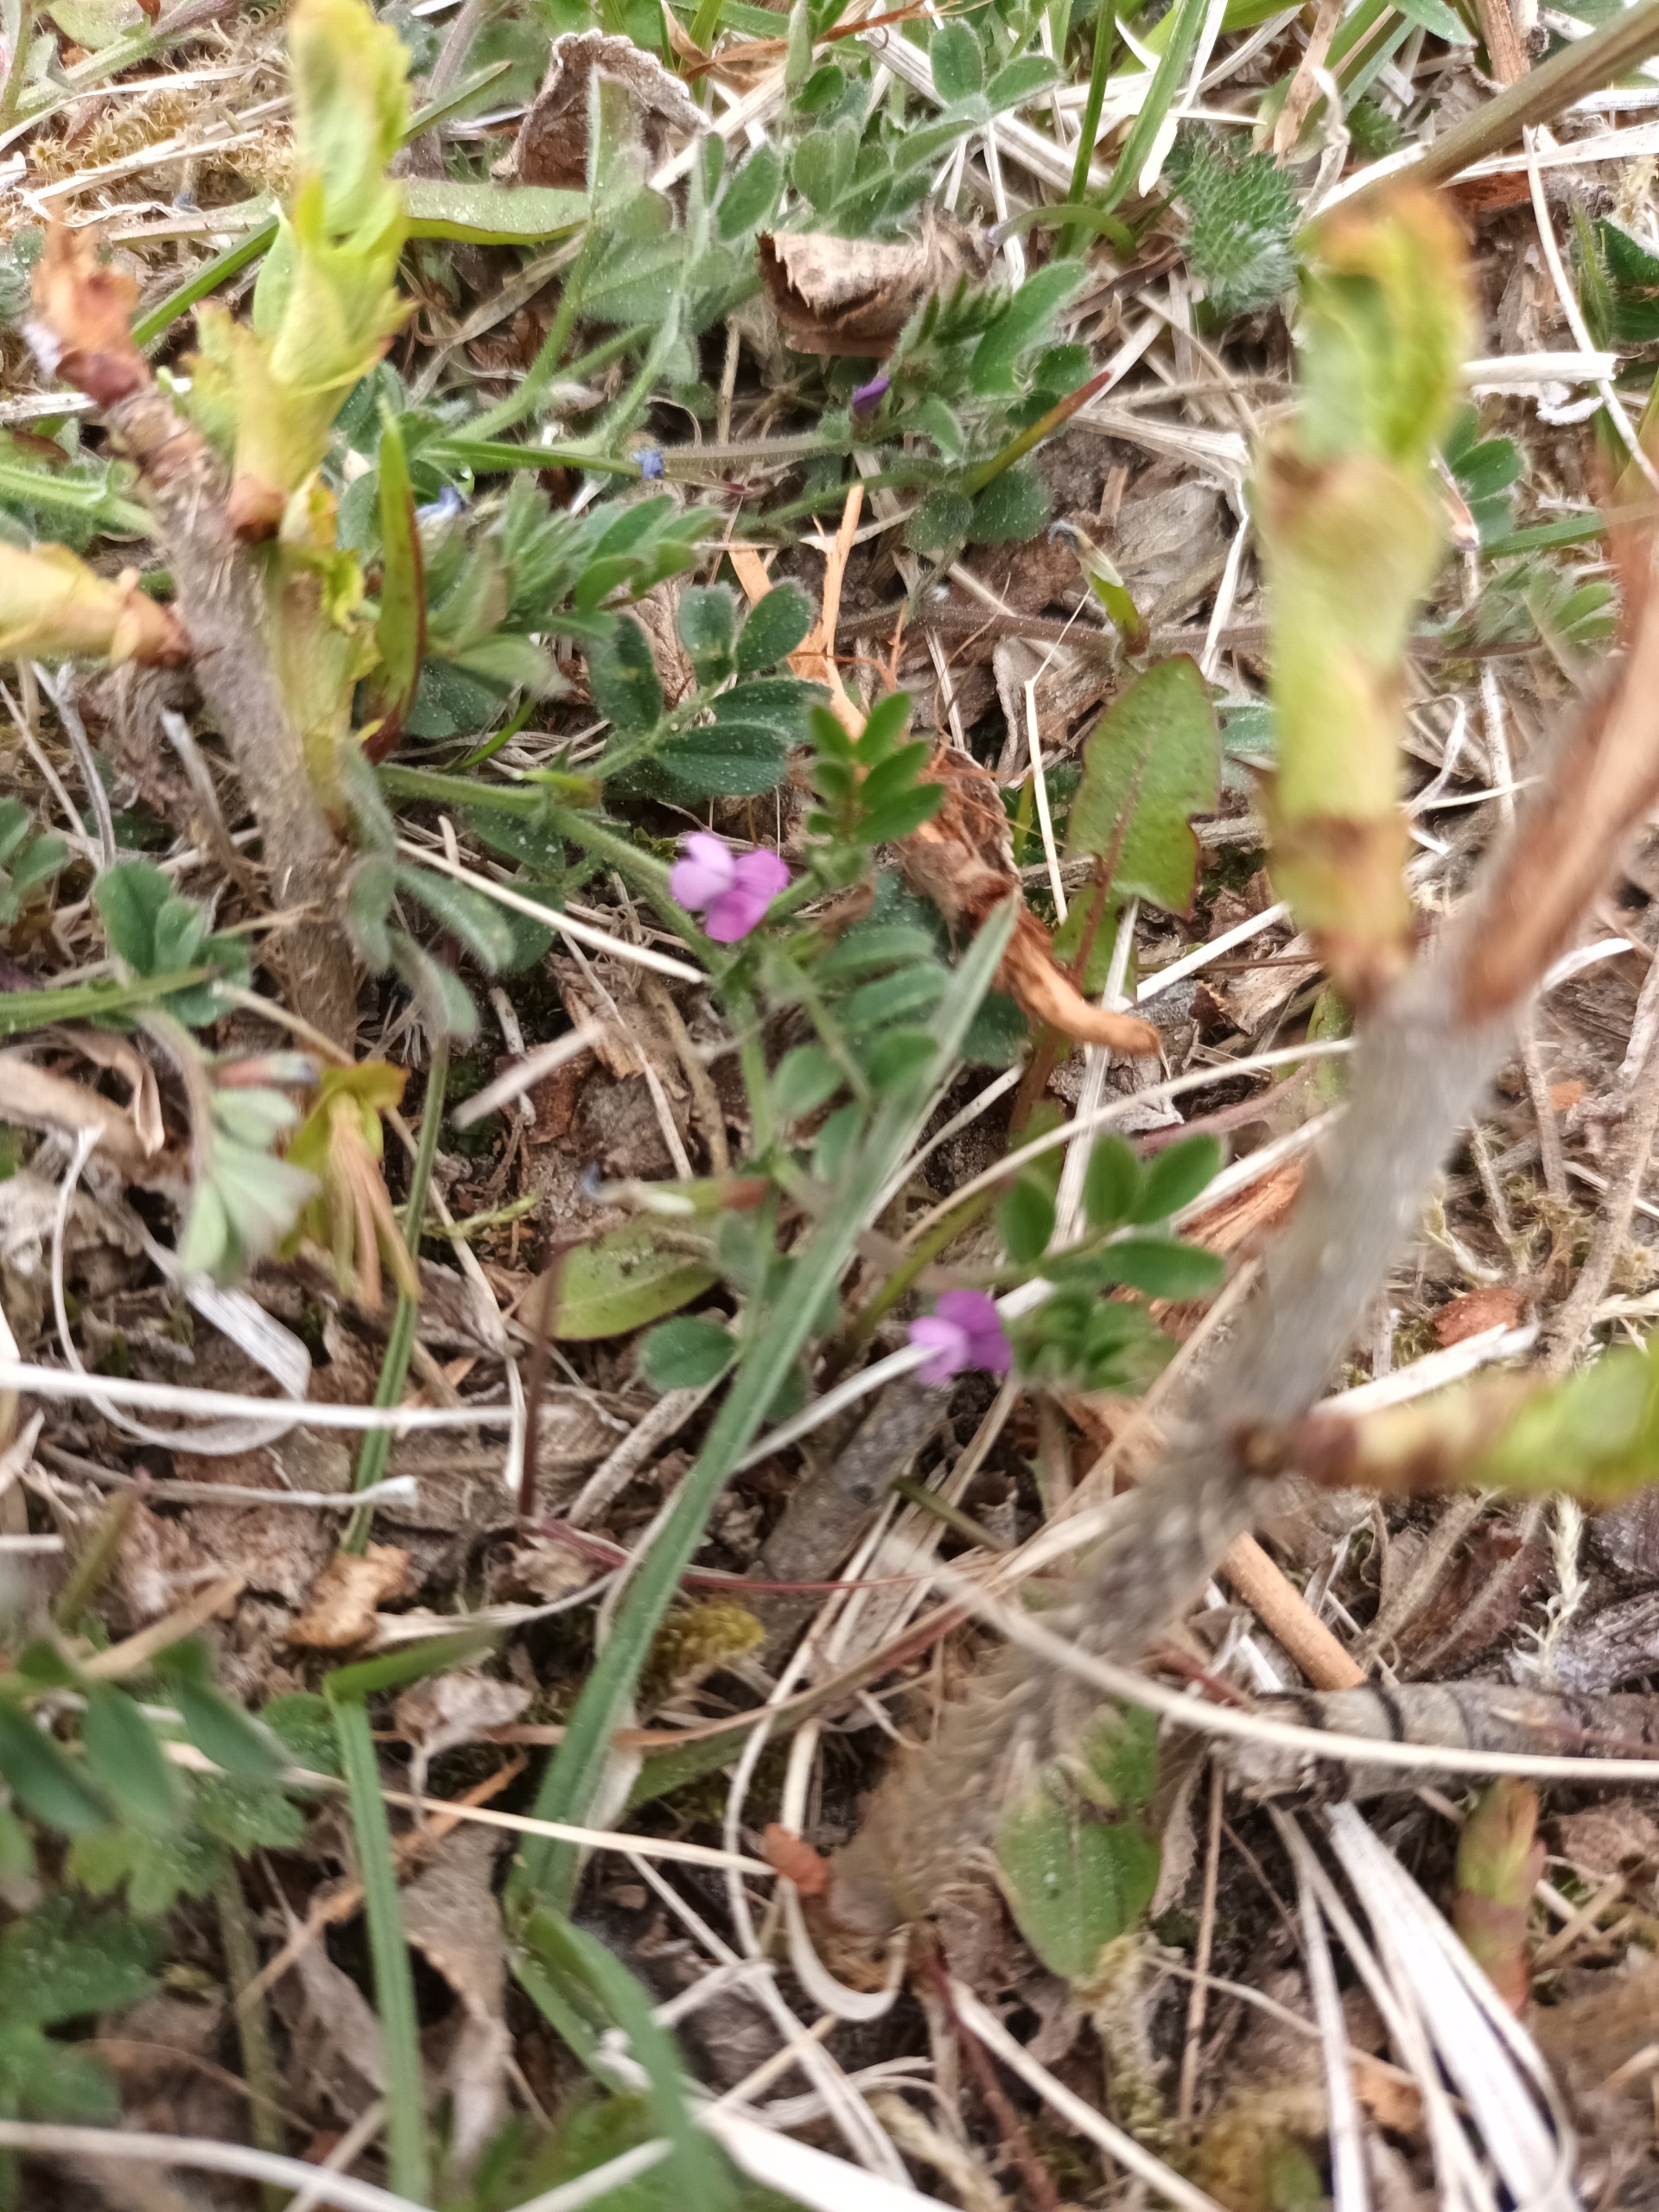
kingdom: Plantae
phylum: Tracheophyta
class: Magnoliopsida
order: Fabales
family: Fabaceae
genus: Vicia
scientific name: Vicia lathyroides
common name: Vår-vikke
